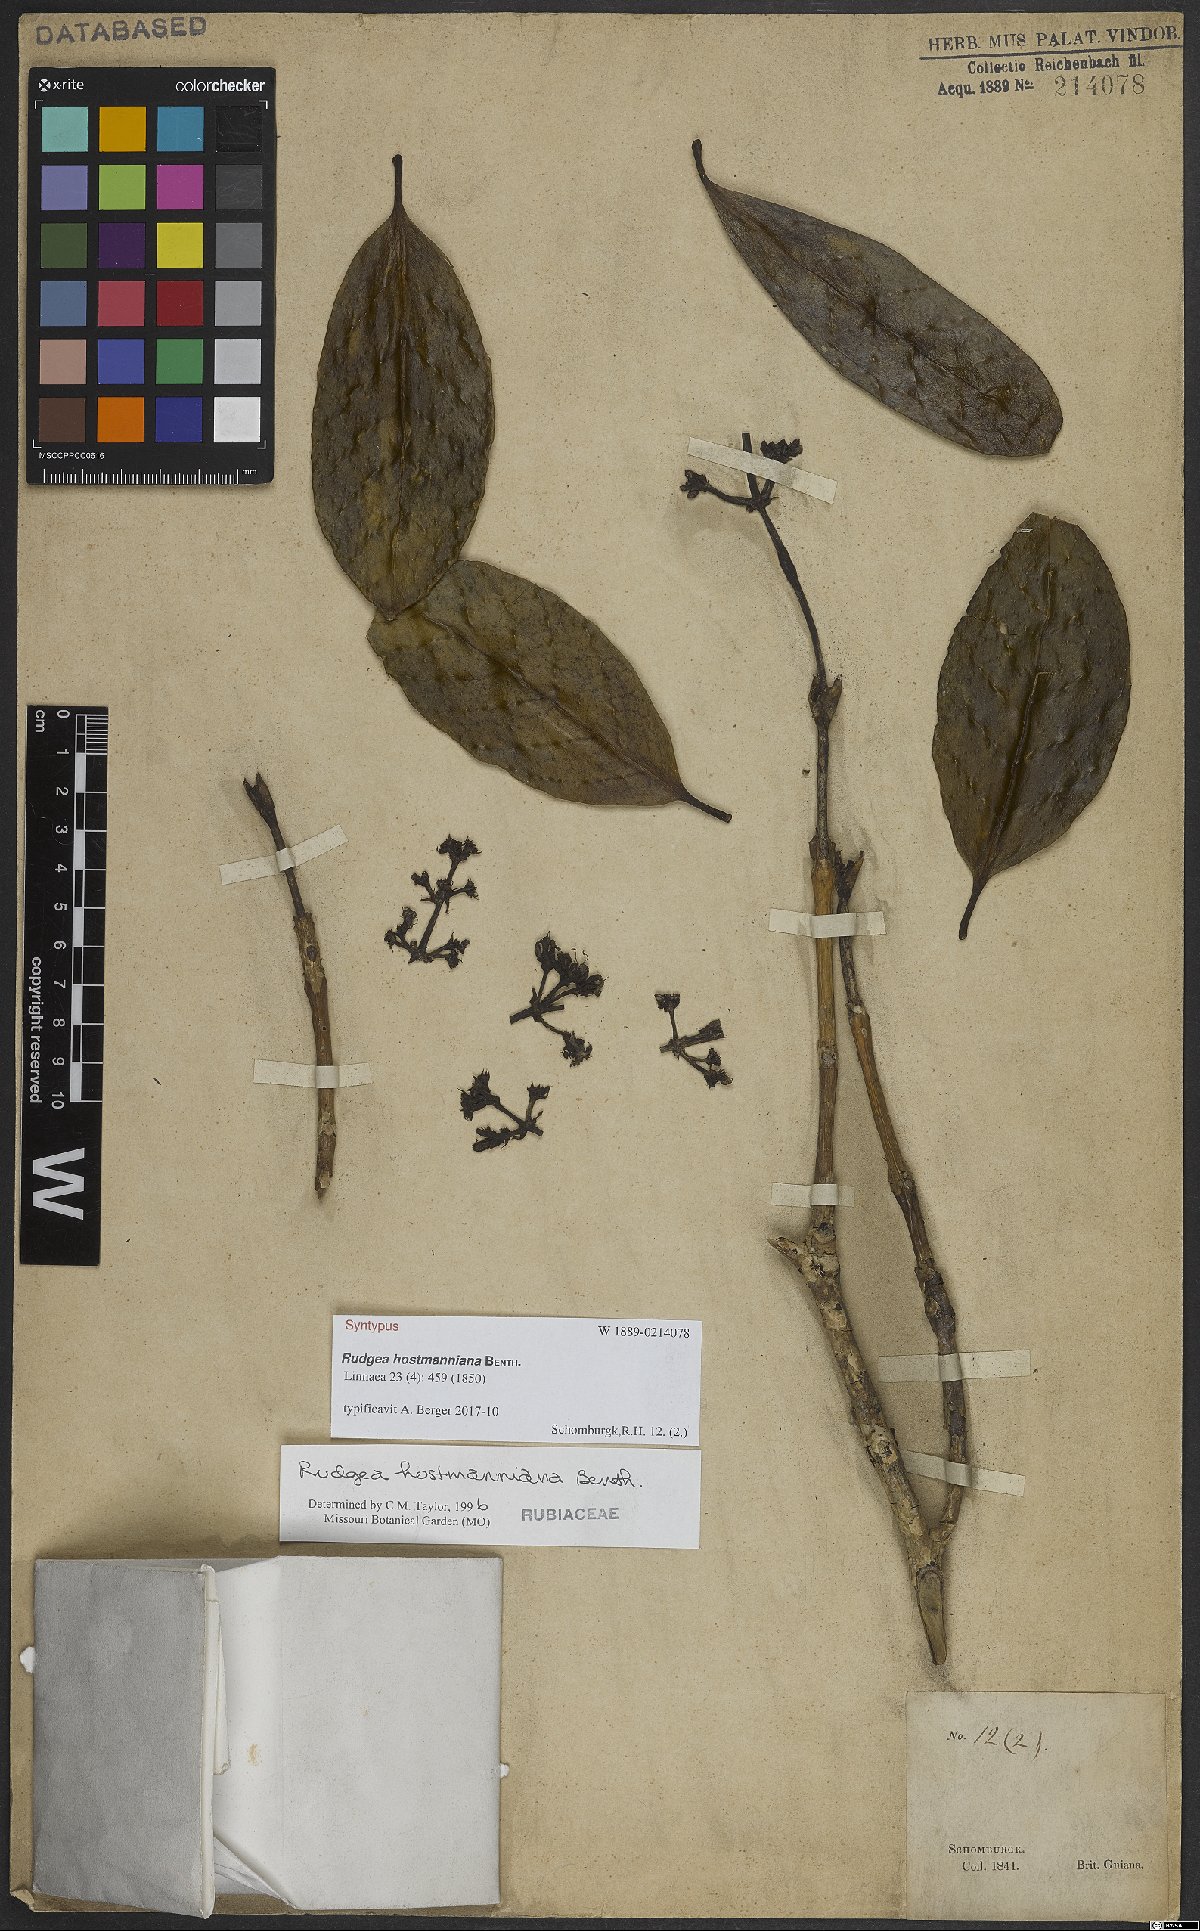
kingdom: Plantae
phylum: Tracheophyta
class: Magnoliopsida
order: Gentianales
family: Rubiaceae
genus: Rudgea
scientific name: Rudgea hostmanniana
